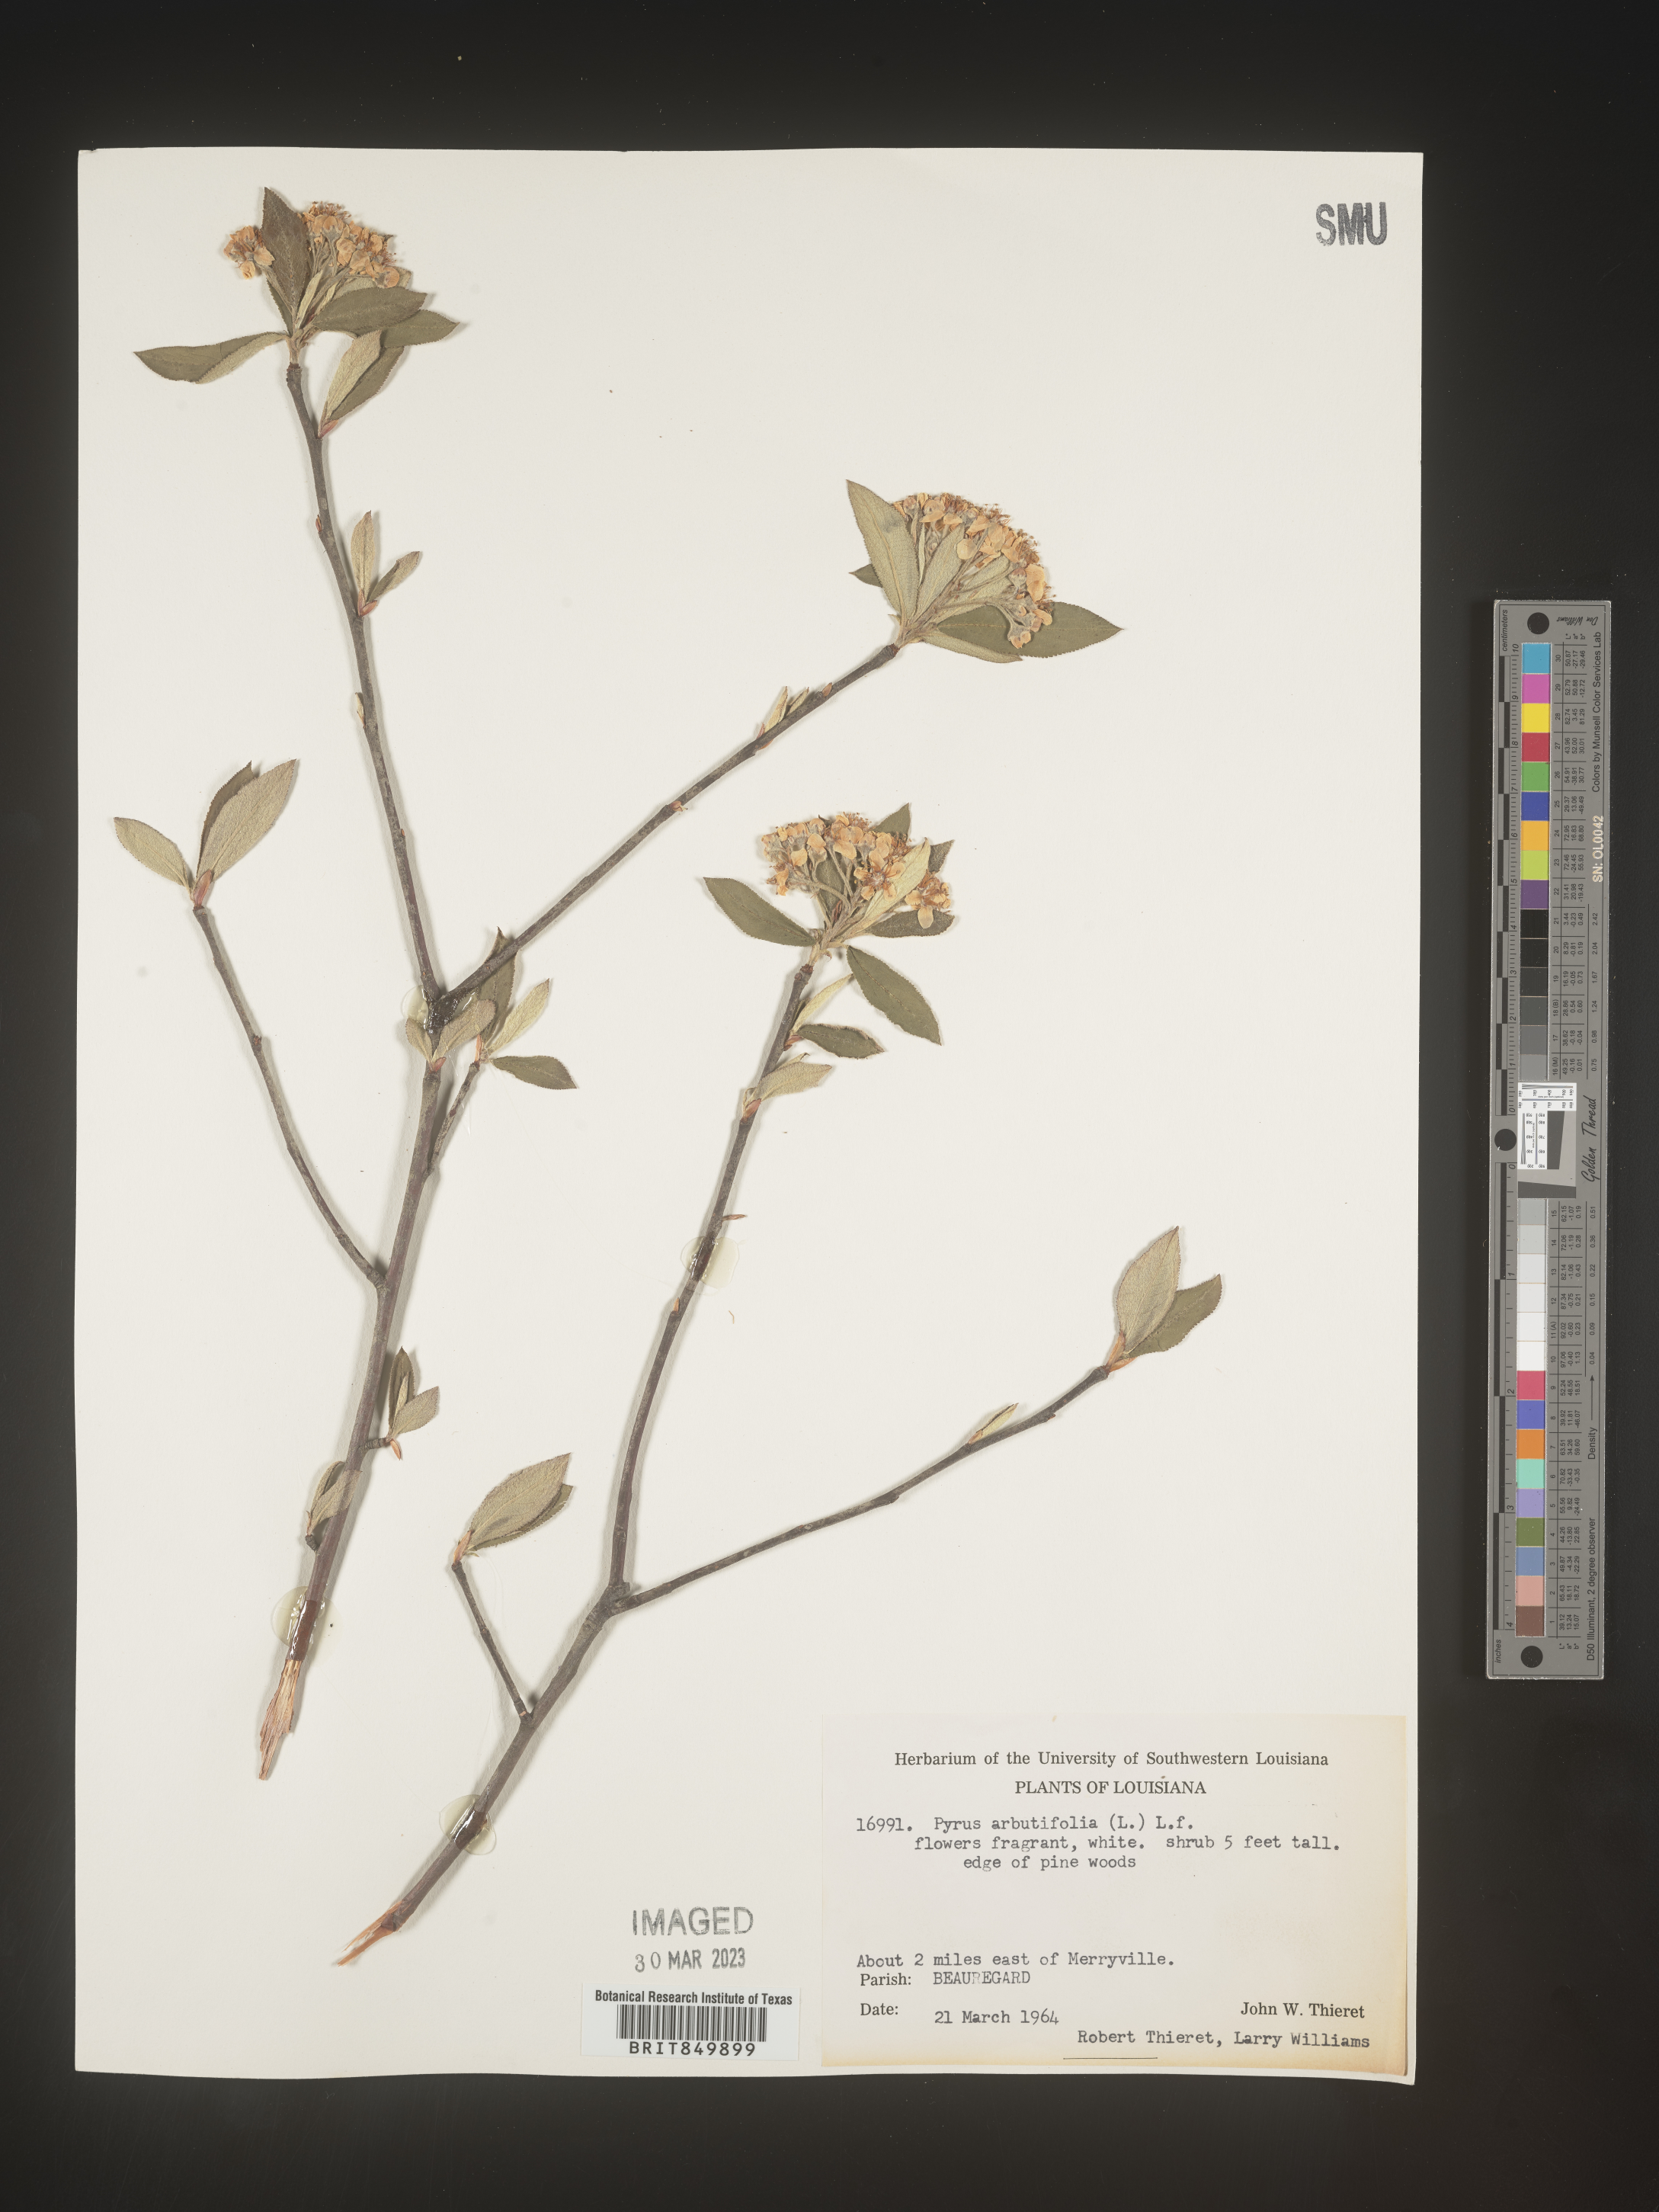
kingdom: Plantae
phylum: Tracheophyta
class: Magnoliopsida
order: Rosales
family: Rosaceae
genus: Pyrus
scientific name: Pyrus
